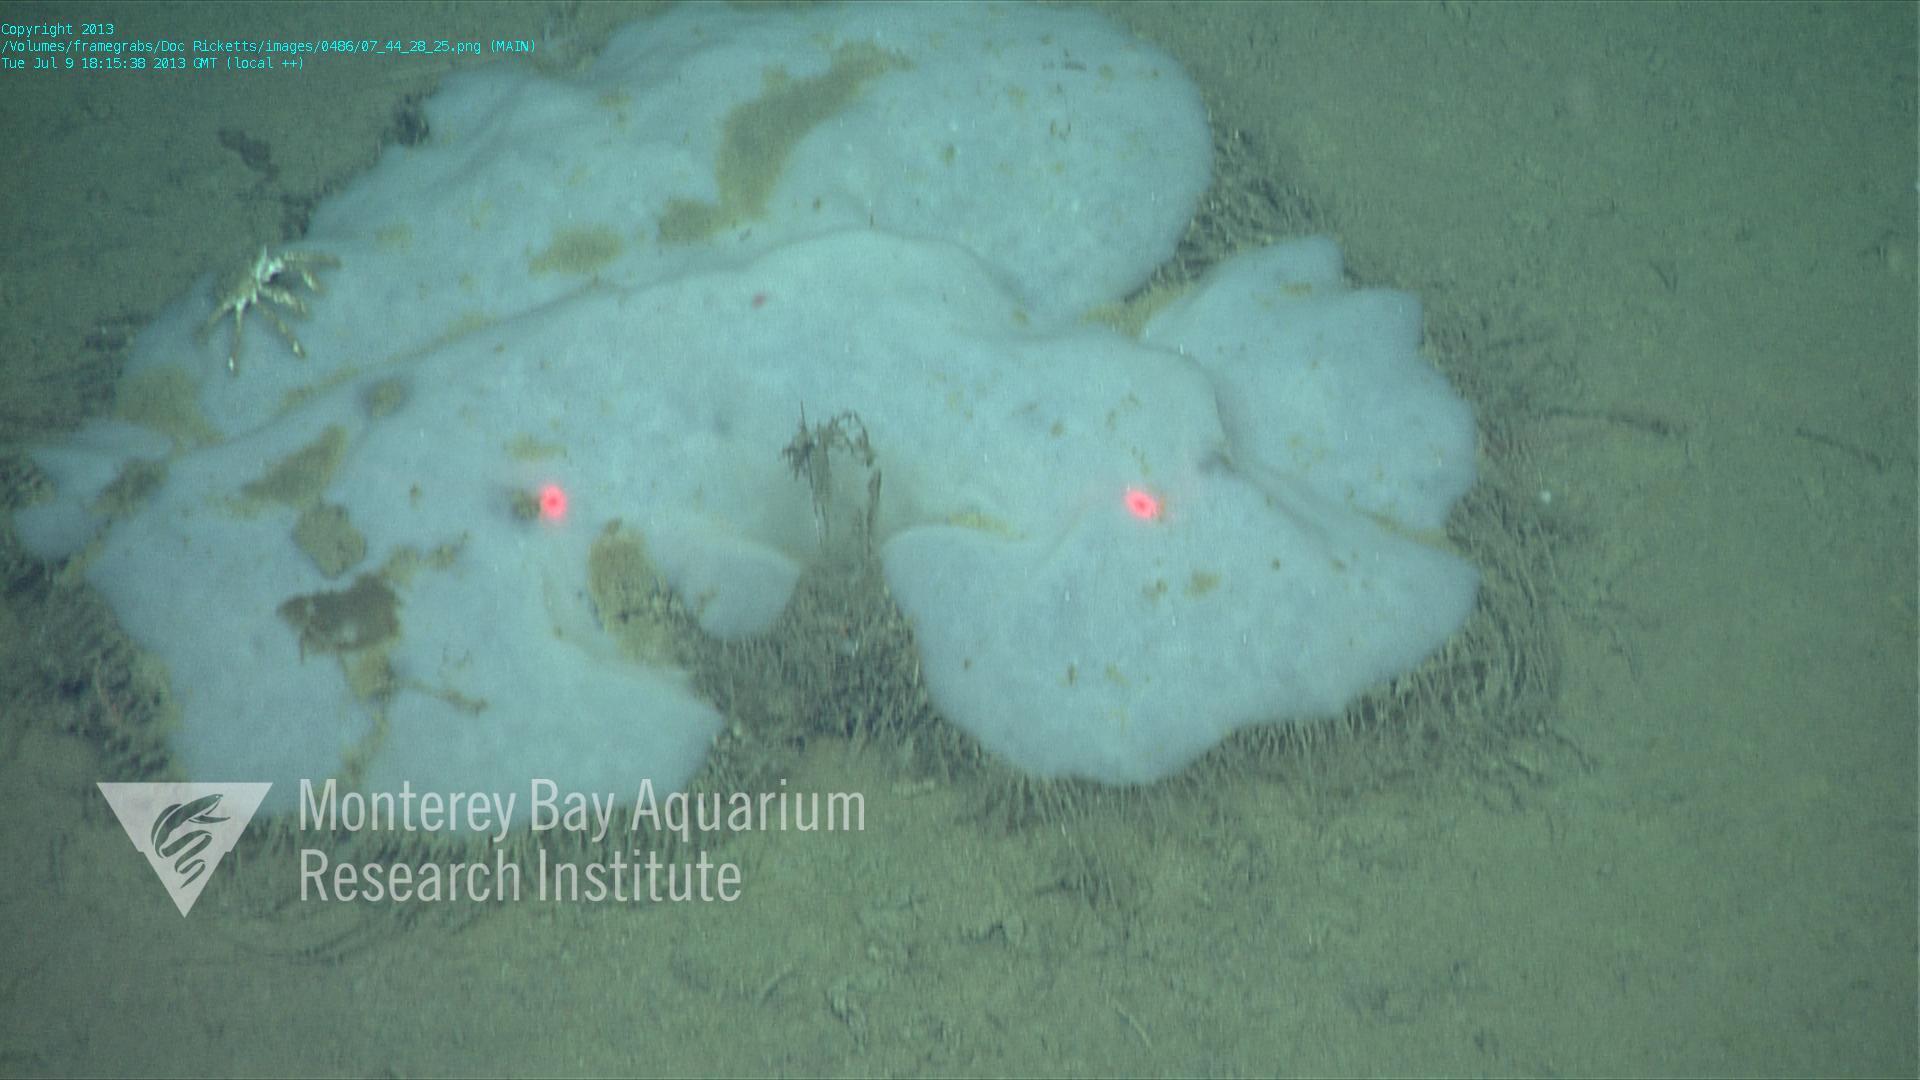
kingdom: Animalia
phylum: Porifera
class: Hexactinellida
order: Lyssacinosida
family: Rossellidae
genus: Bathydorus
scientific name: Bathydorus laniger
